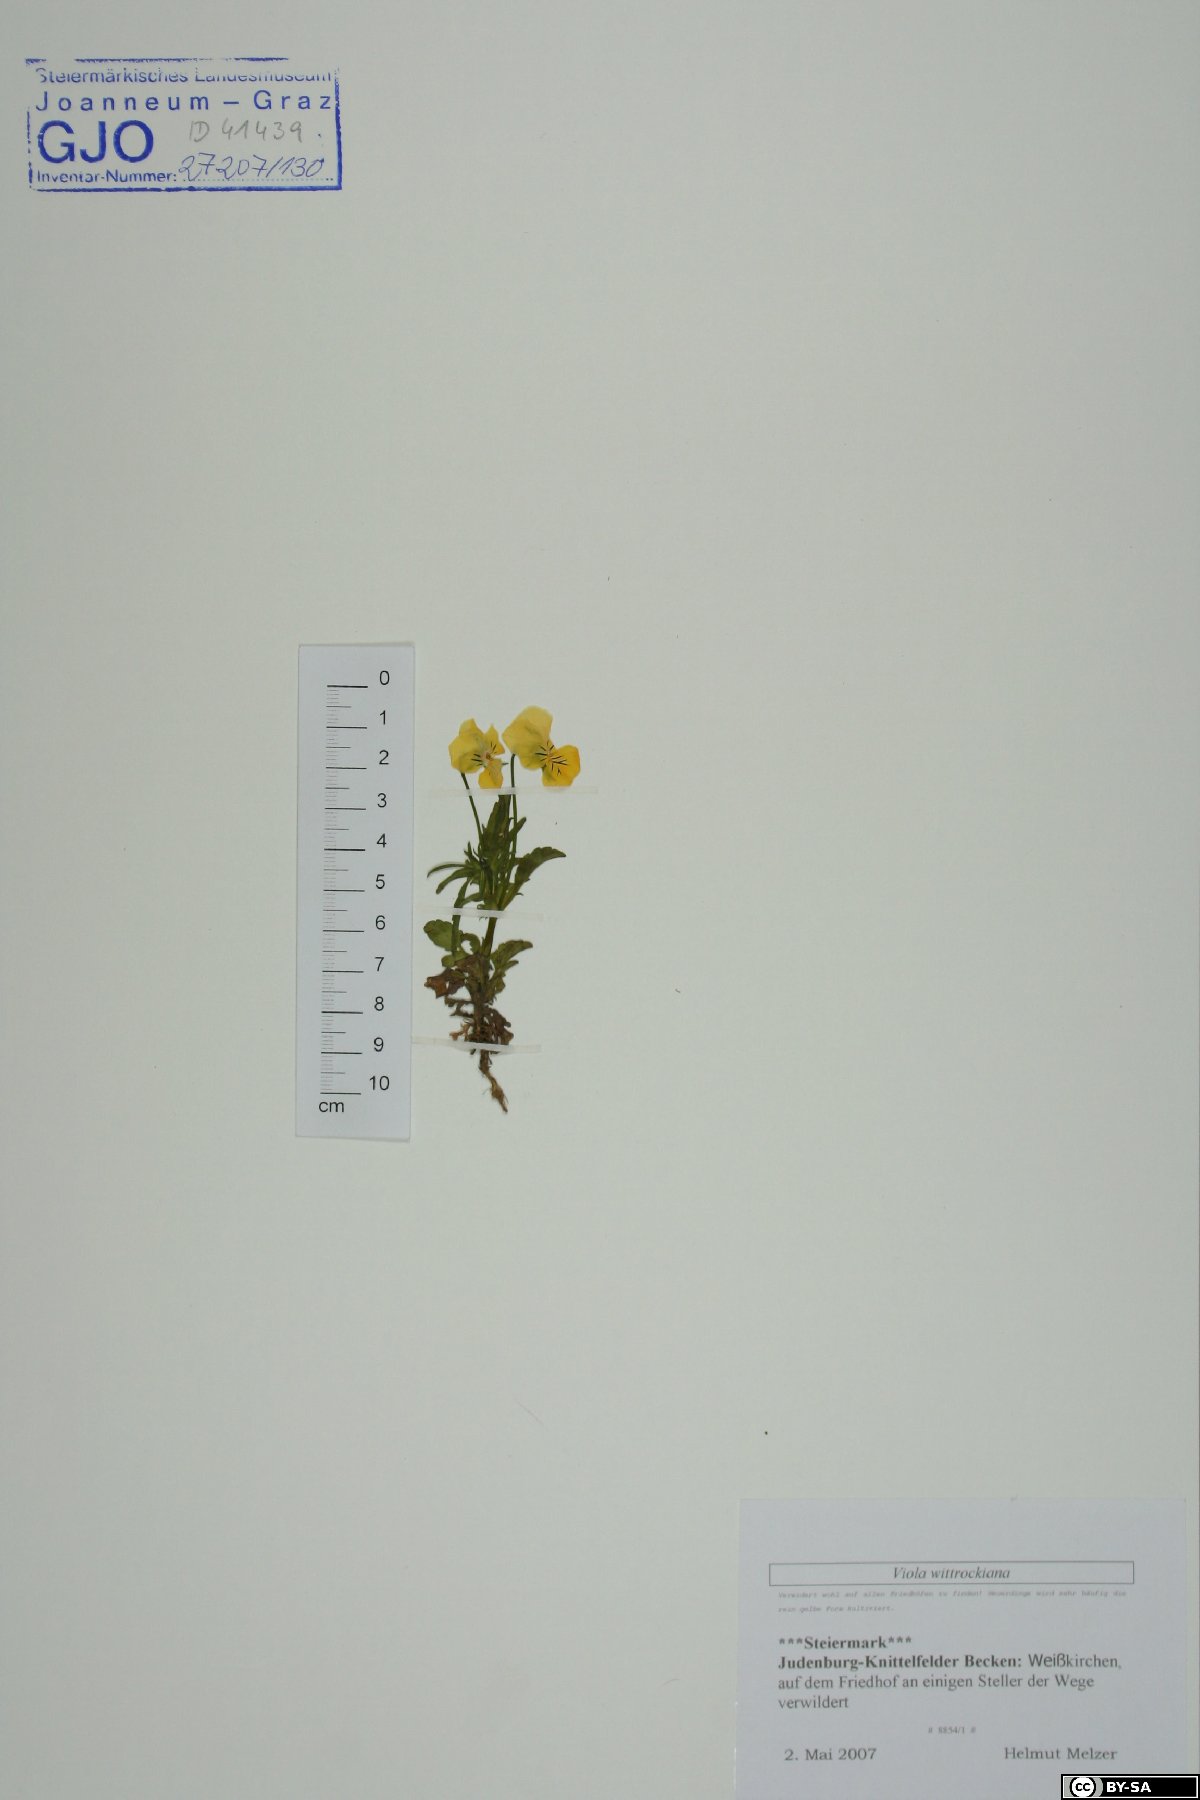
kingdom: Plantae
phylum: Tracheophyta
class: Magnoliopsida
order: Malpighiales
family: Violaceae
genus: Viola
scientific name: Viola wittrockiana
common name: Garden pansy
